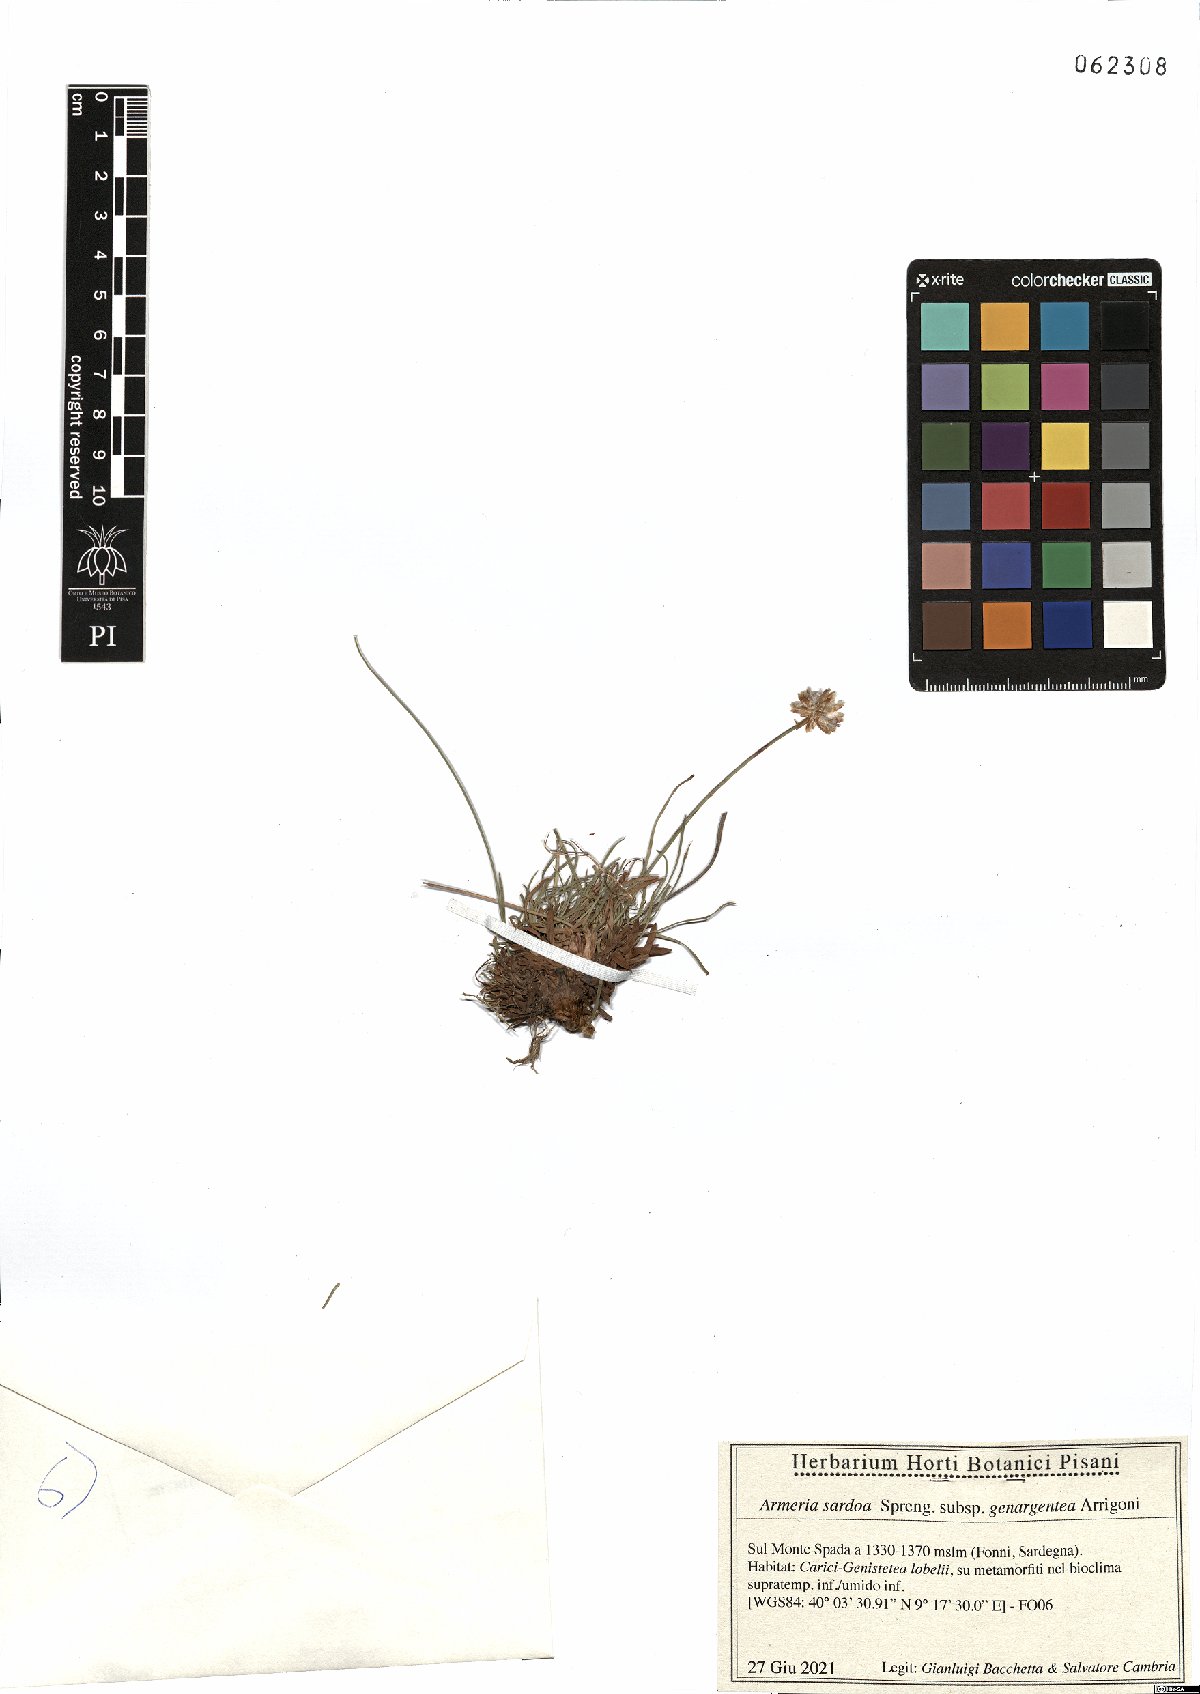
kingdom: Plantae
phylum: Tracheophyta
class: Magnoliopsida
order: Caryophyllales
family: Plumbaginaceae
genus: Armeria
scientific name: Armeria sardoa
